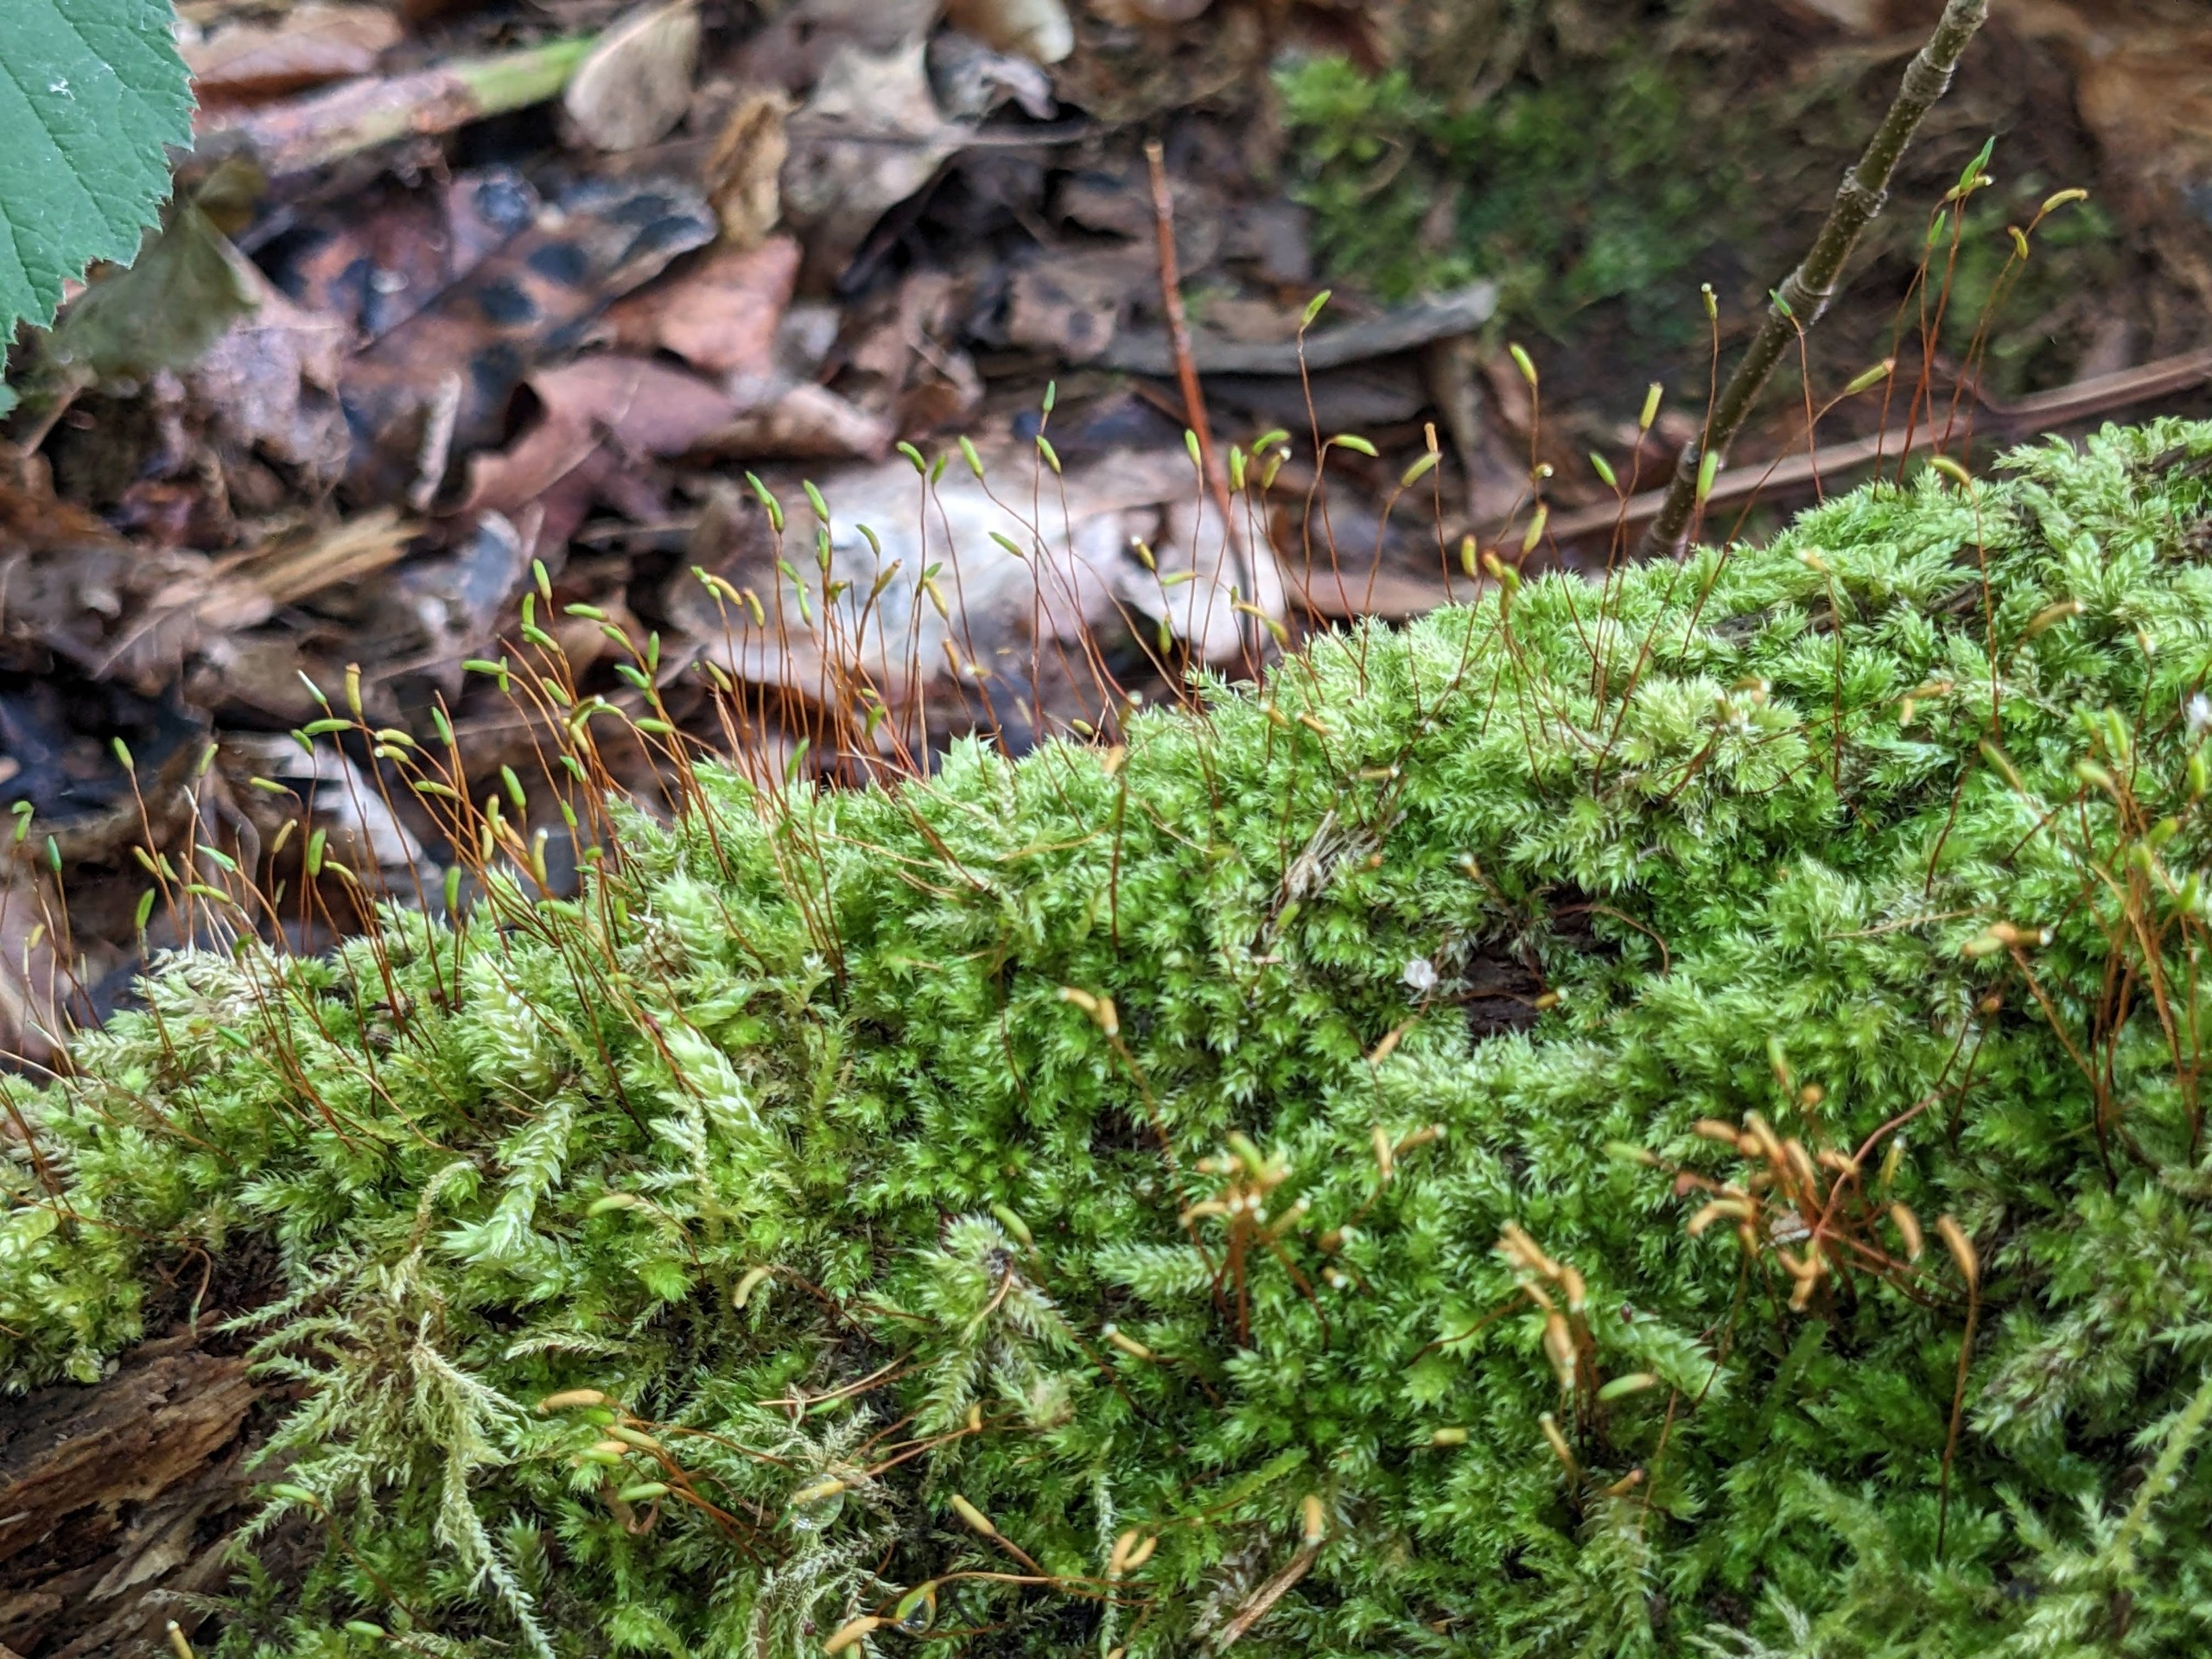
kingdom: Plantae
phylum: Bryophyta
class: Bryopsida
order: Hypnales
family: Plagiotheciaceae
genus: Herzogiella
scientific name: Herzogiella seligeri
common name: Stub-pølsekapsel
